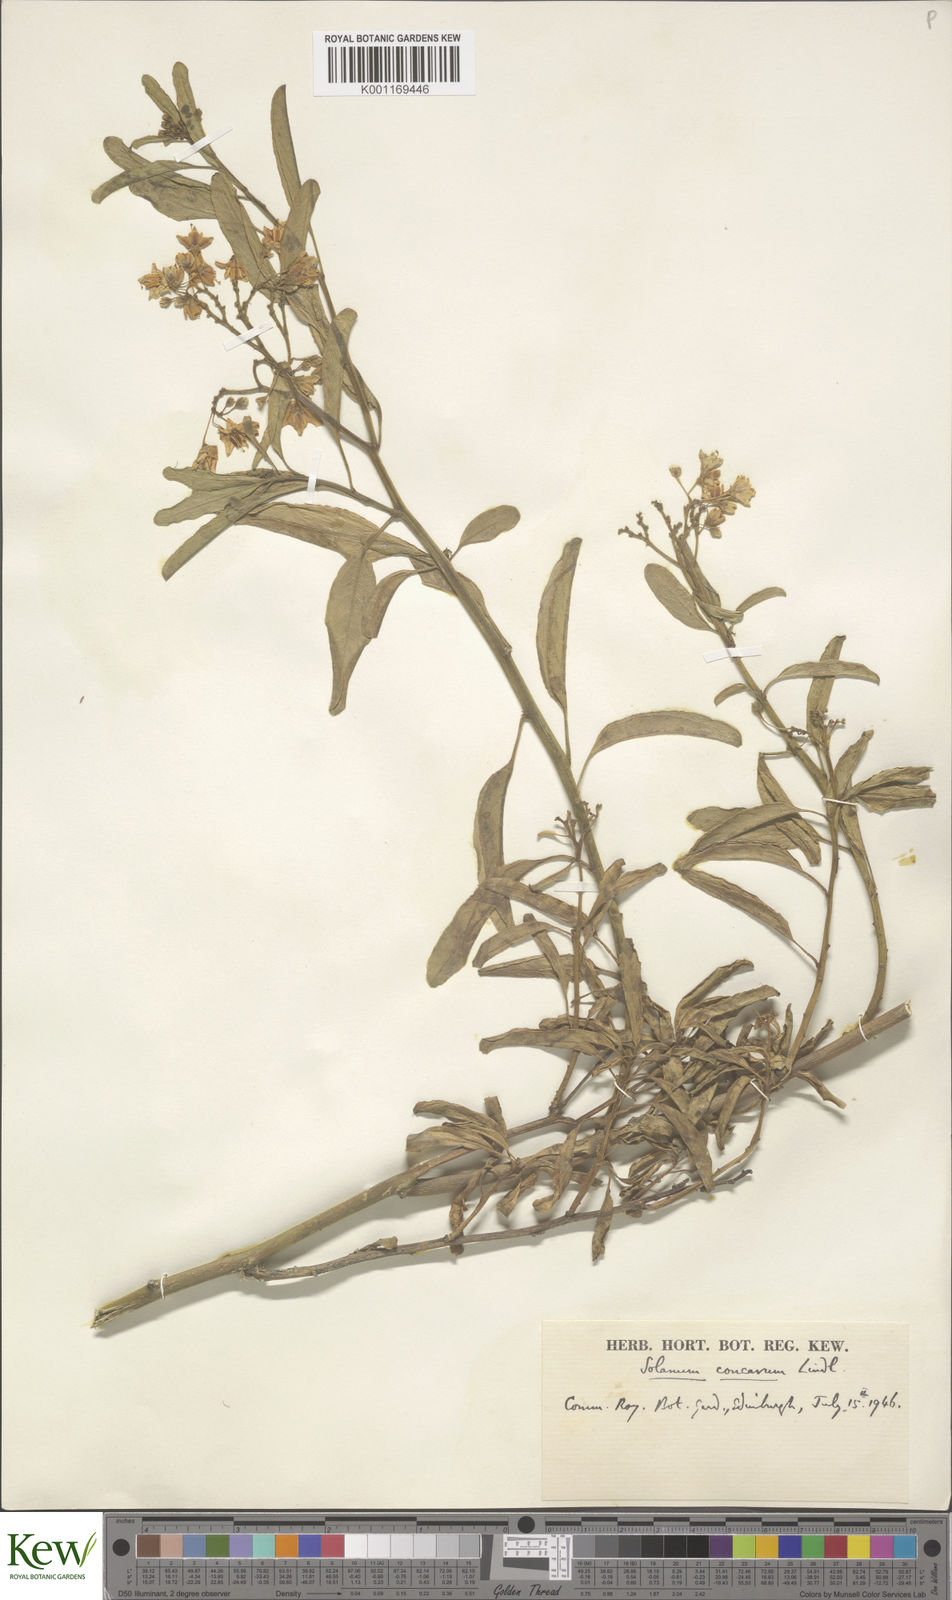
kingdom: Plantae
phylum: Tracheophyta
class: Magnoliopsida
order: Solanales
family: Solanaceae
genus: Solanum
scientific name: Solanum crispum
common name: Chilean nightshade
